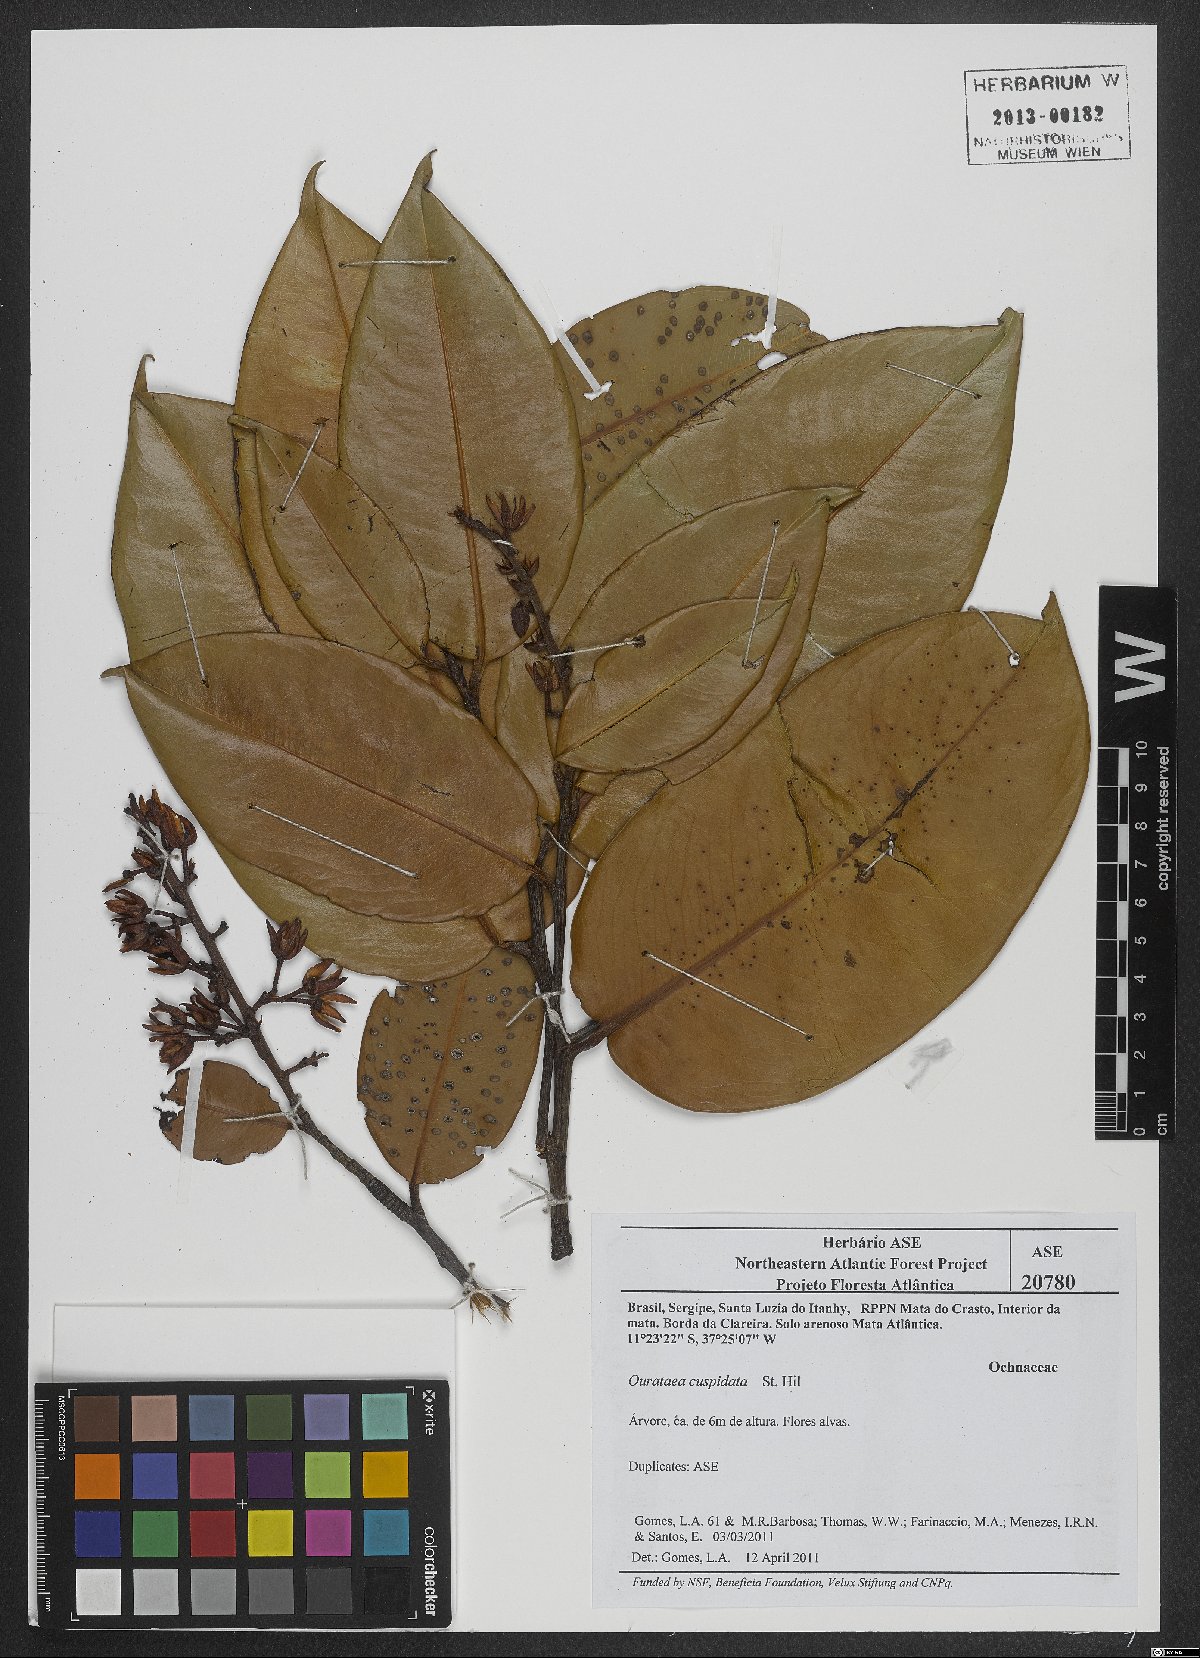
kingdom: Plantae
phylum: Tracheophyta
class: Magnoliopsida
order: Malpighiales
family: Ochnaceae
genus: Ouratea
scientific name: Ouratea cuspidata
